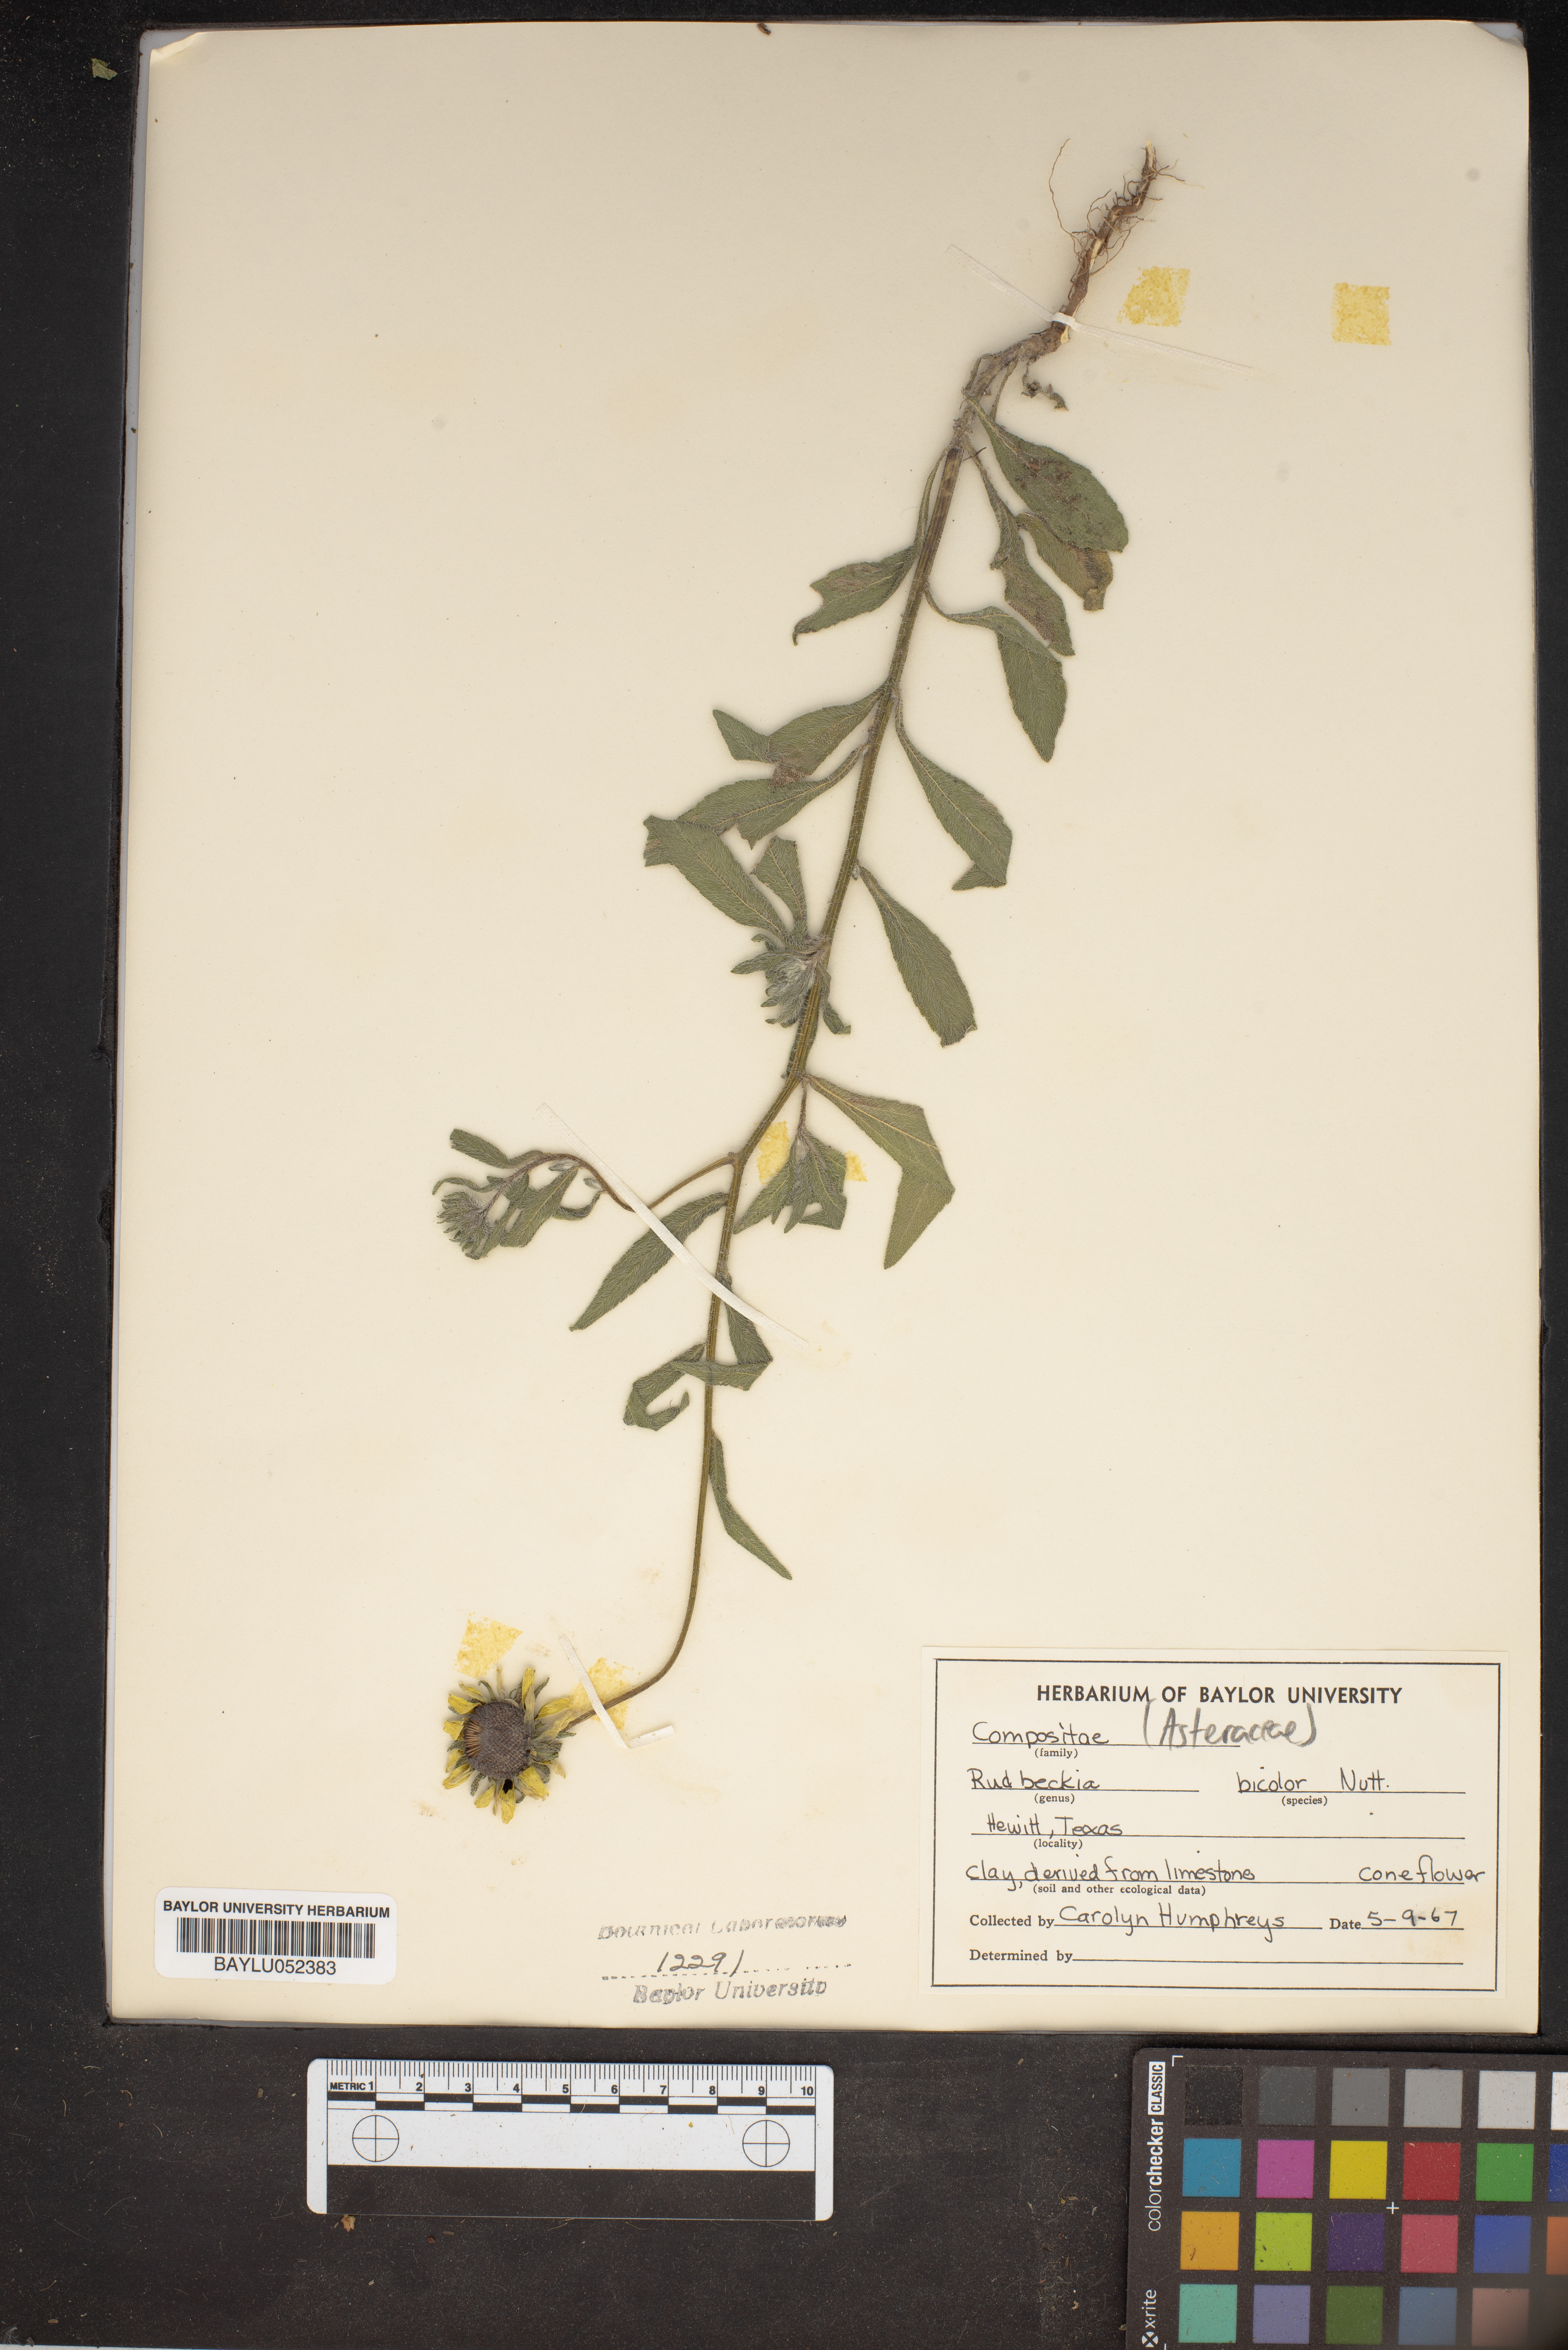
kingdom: Plantae
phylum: Tracheophyta
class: Magnoliopsida
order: Asterales
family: Asteraceae
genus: Rudbeckia
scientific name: Rudbeckia hirta
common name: Black-eyed-susan
